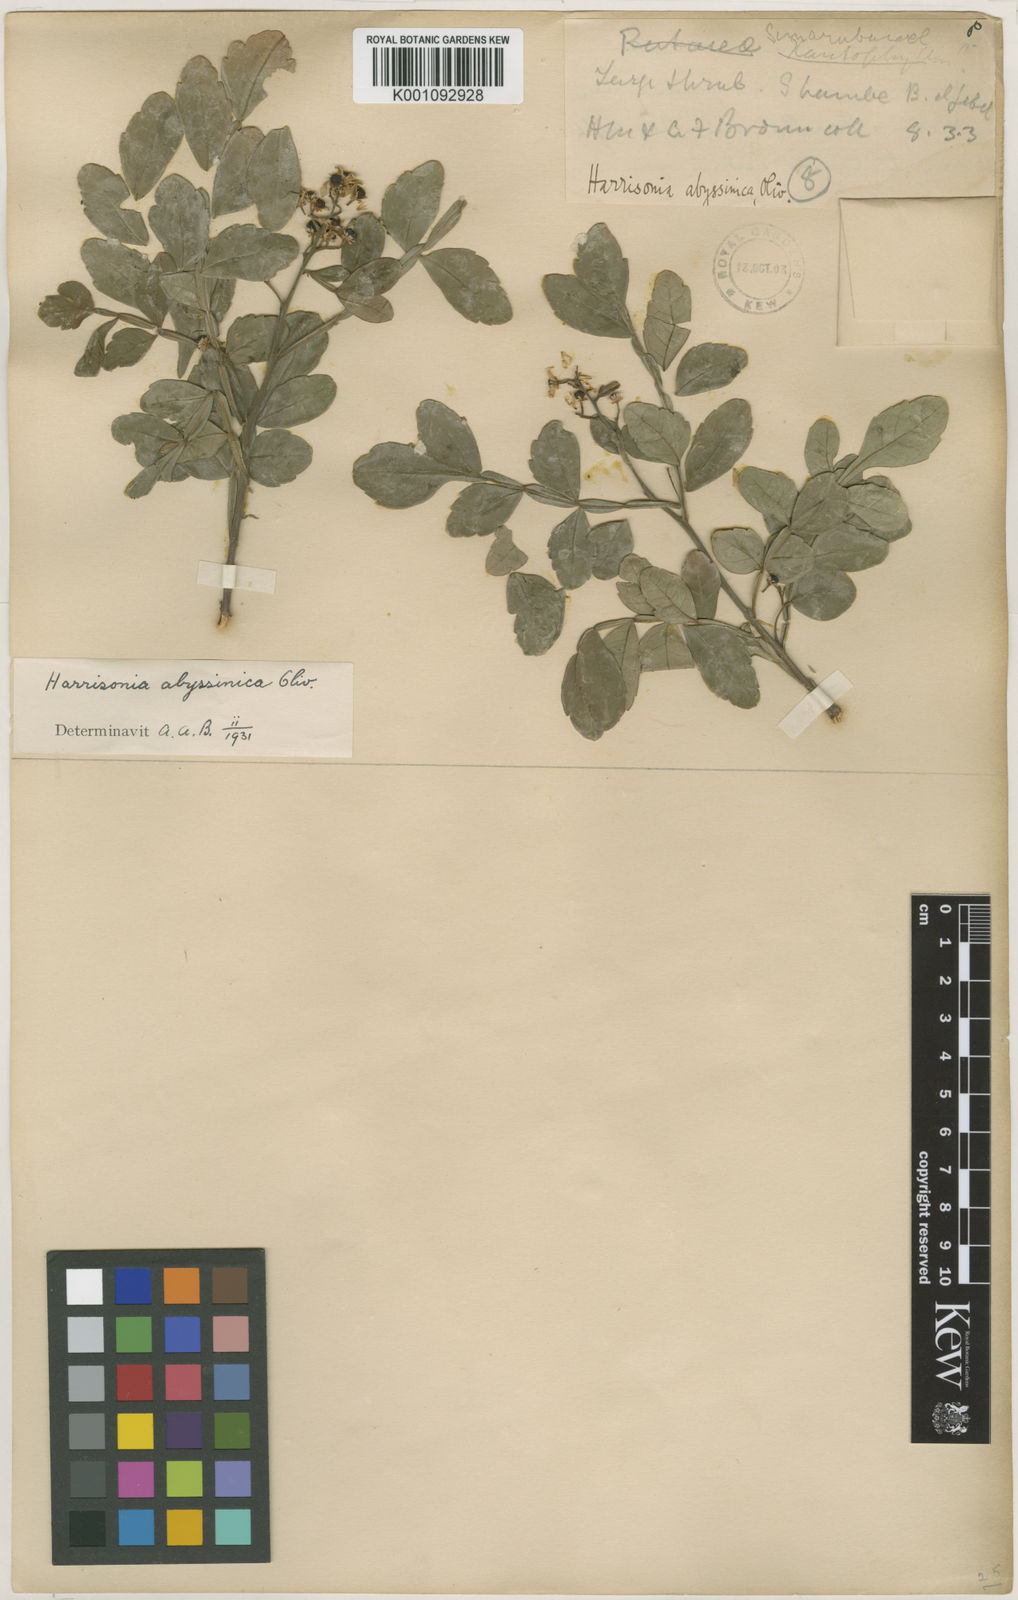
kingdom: Plantae
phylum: Tracheophyta
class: Magnoliopsida
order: Sapindales
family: Rutaceae
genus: Harrisonia
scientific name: Harrisonia abyssinica
